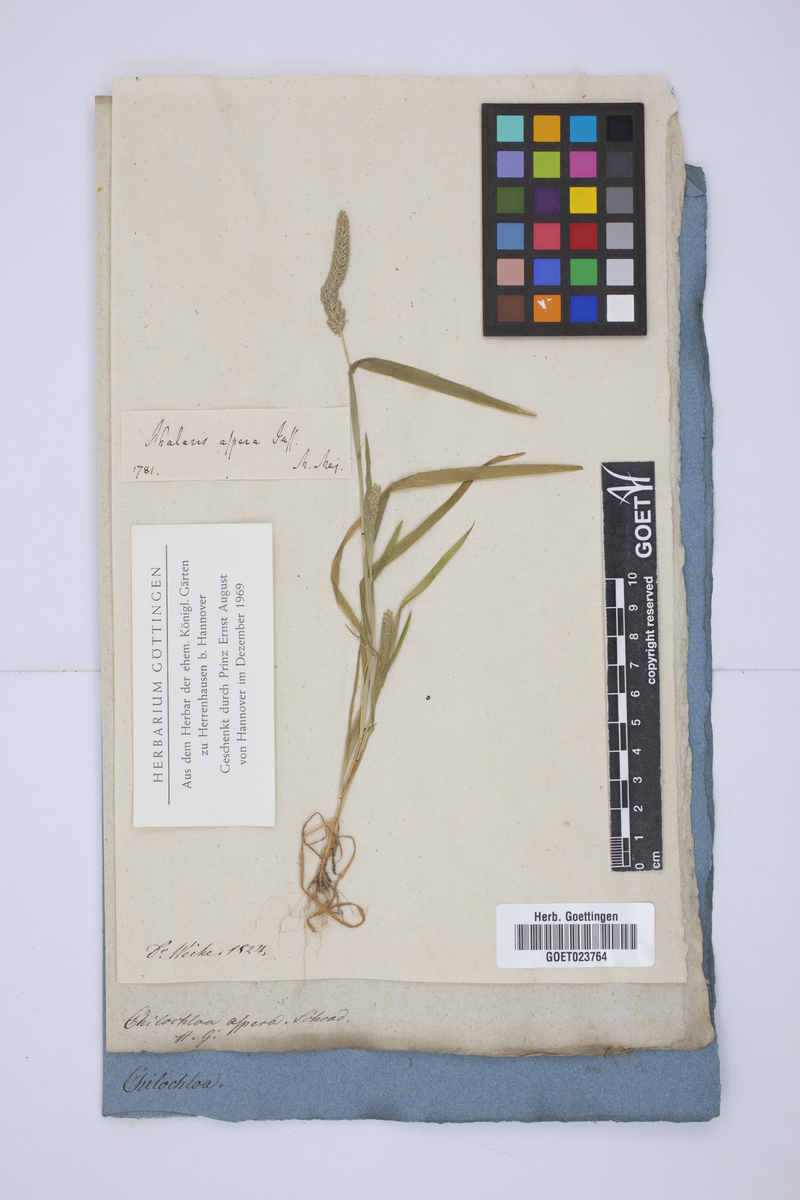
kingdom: Plantae
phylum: Tracheophyta
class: Liliopsida
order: Poales
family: Poaceae
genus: Phleum
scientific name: Phleum paniculatum
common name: British timothy
